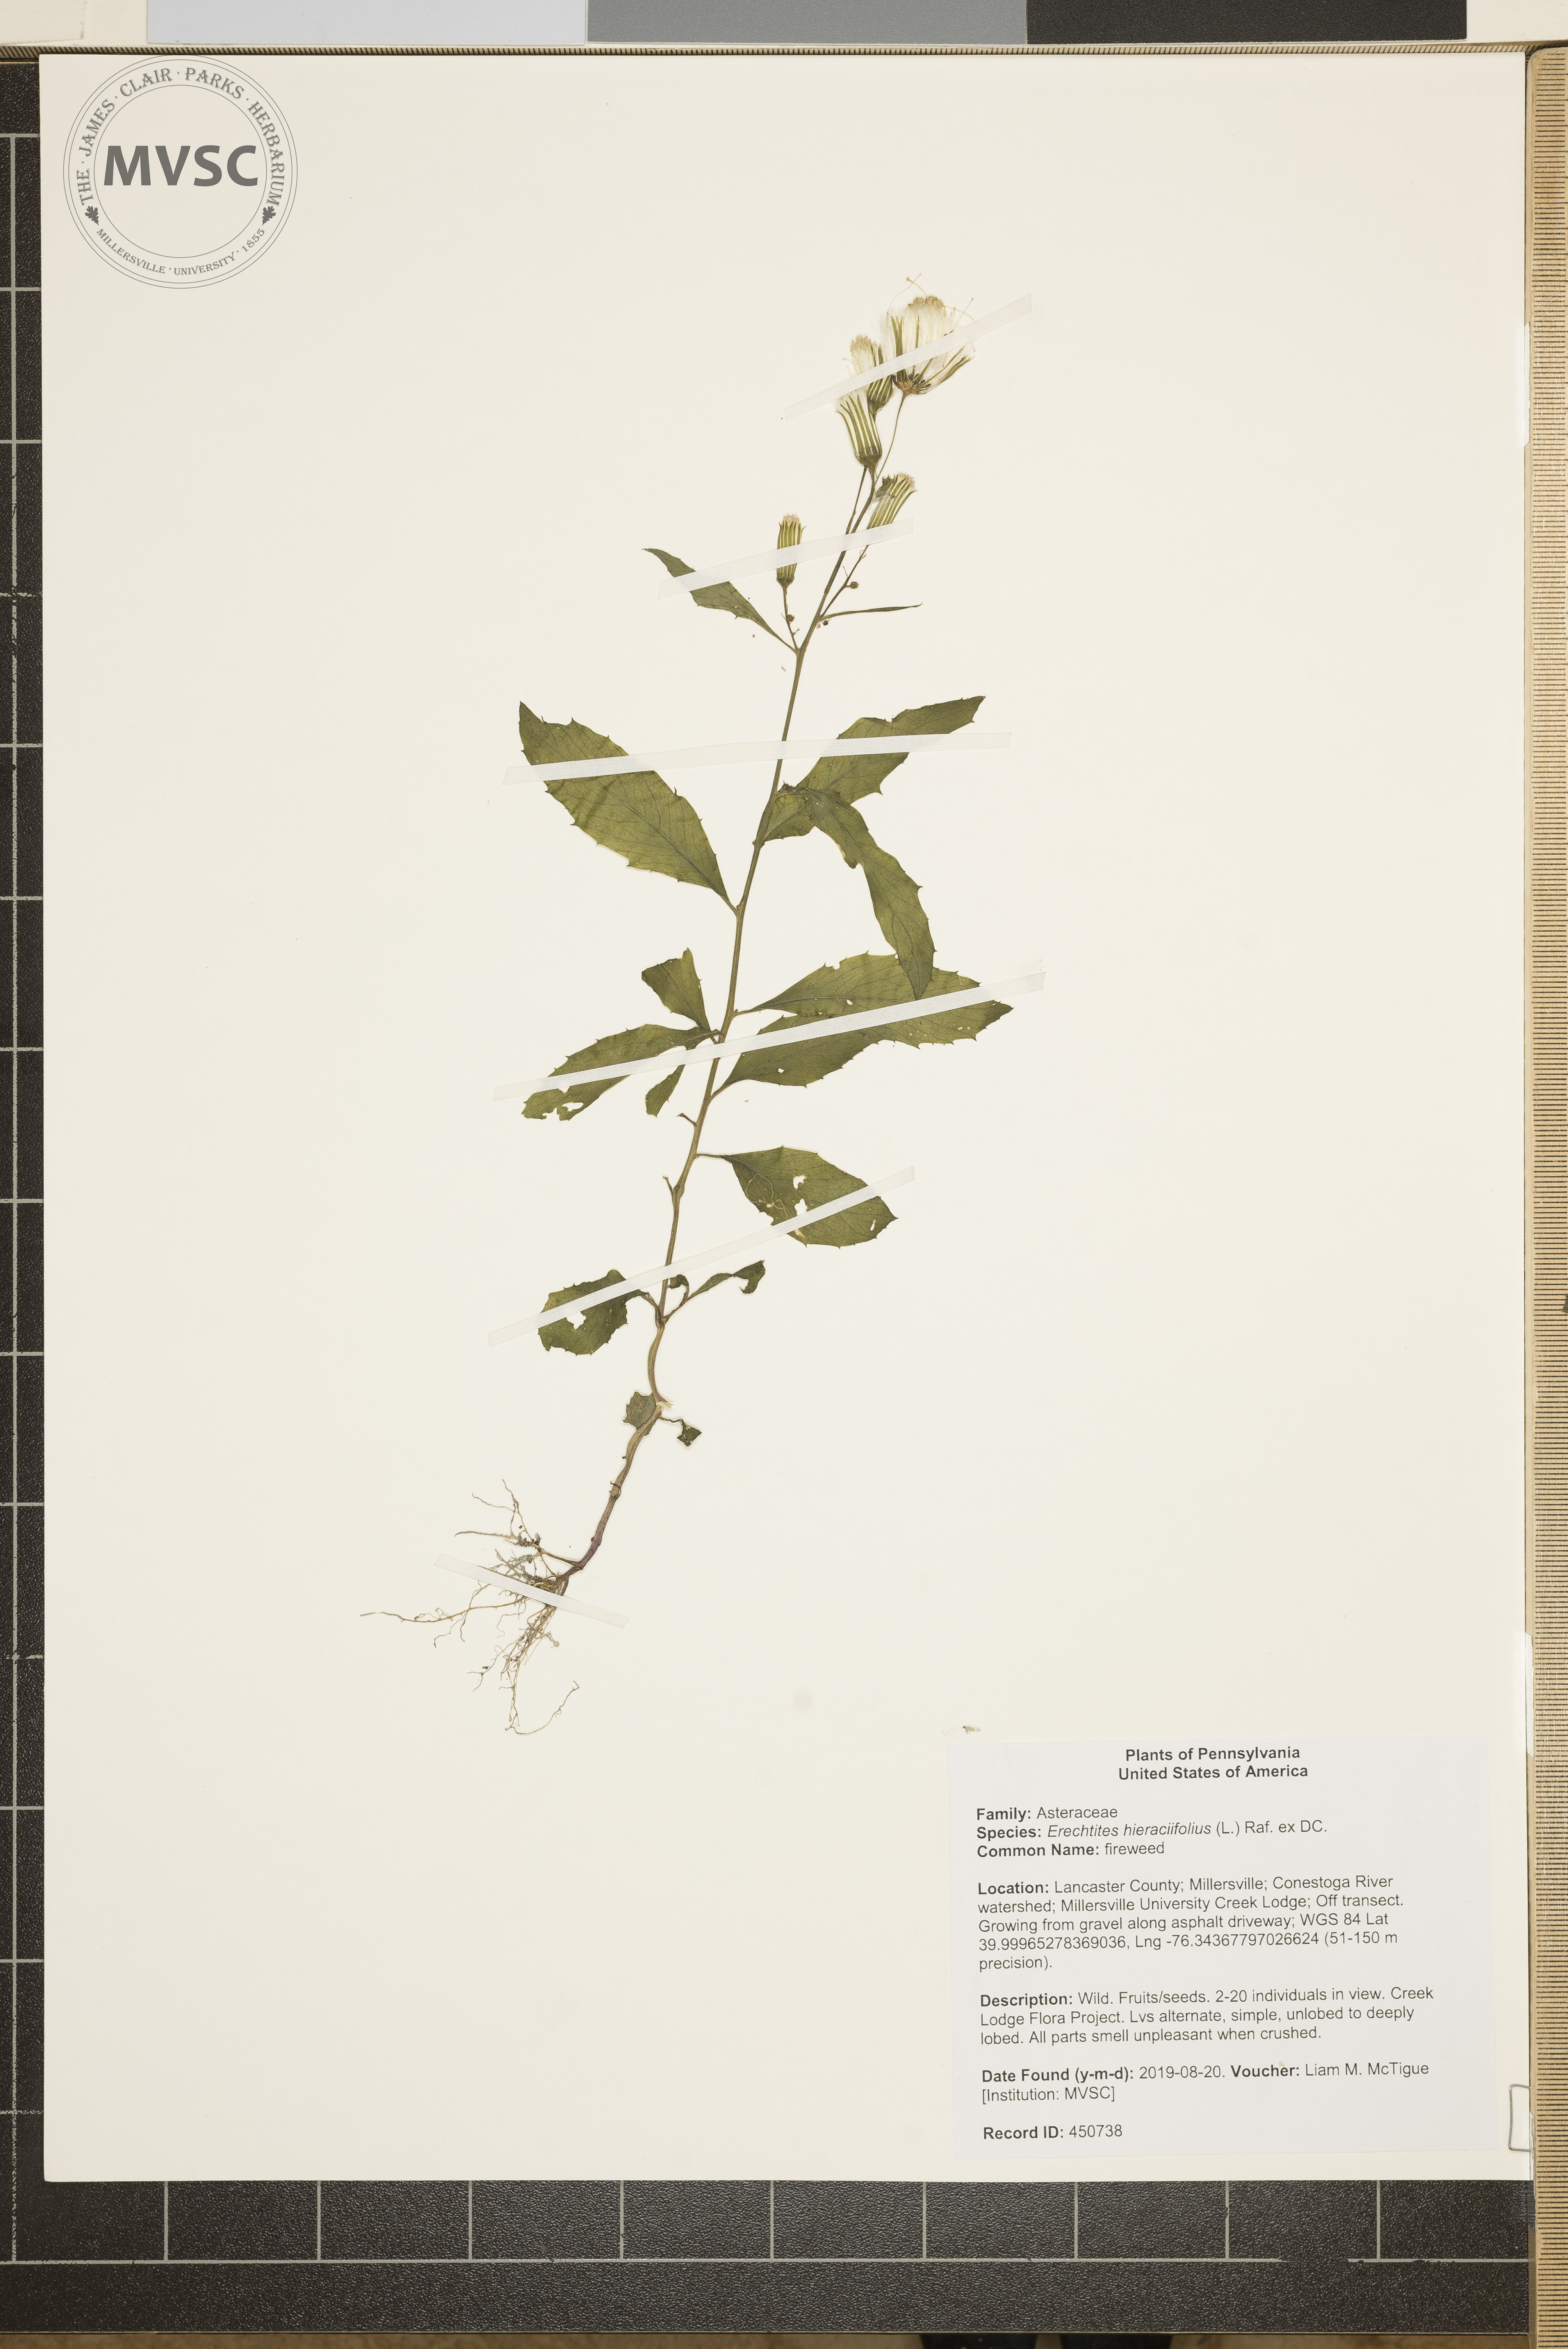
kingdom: Plantae
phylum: Tracheophyta
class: Magnoliopsida
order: Asterales
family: Asteraceae
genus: Erechtites
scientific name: Erechtites hieraciifolius
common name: fireweed
